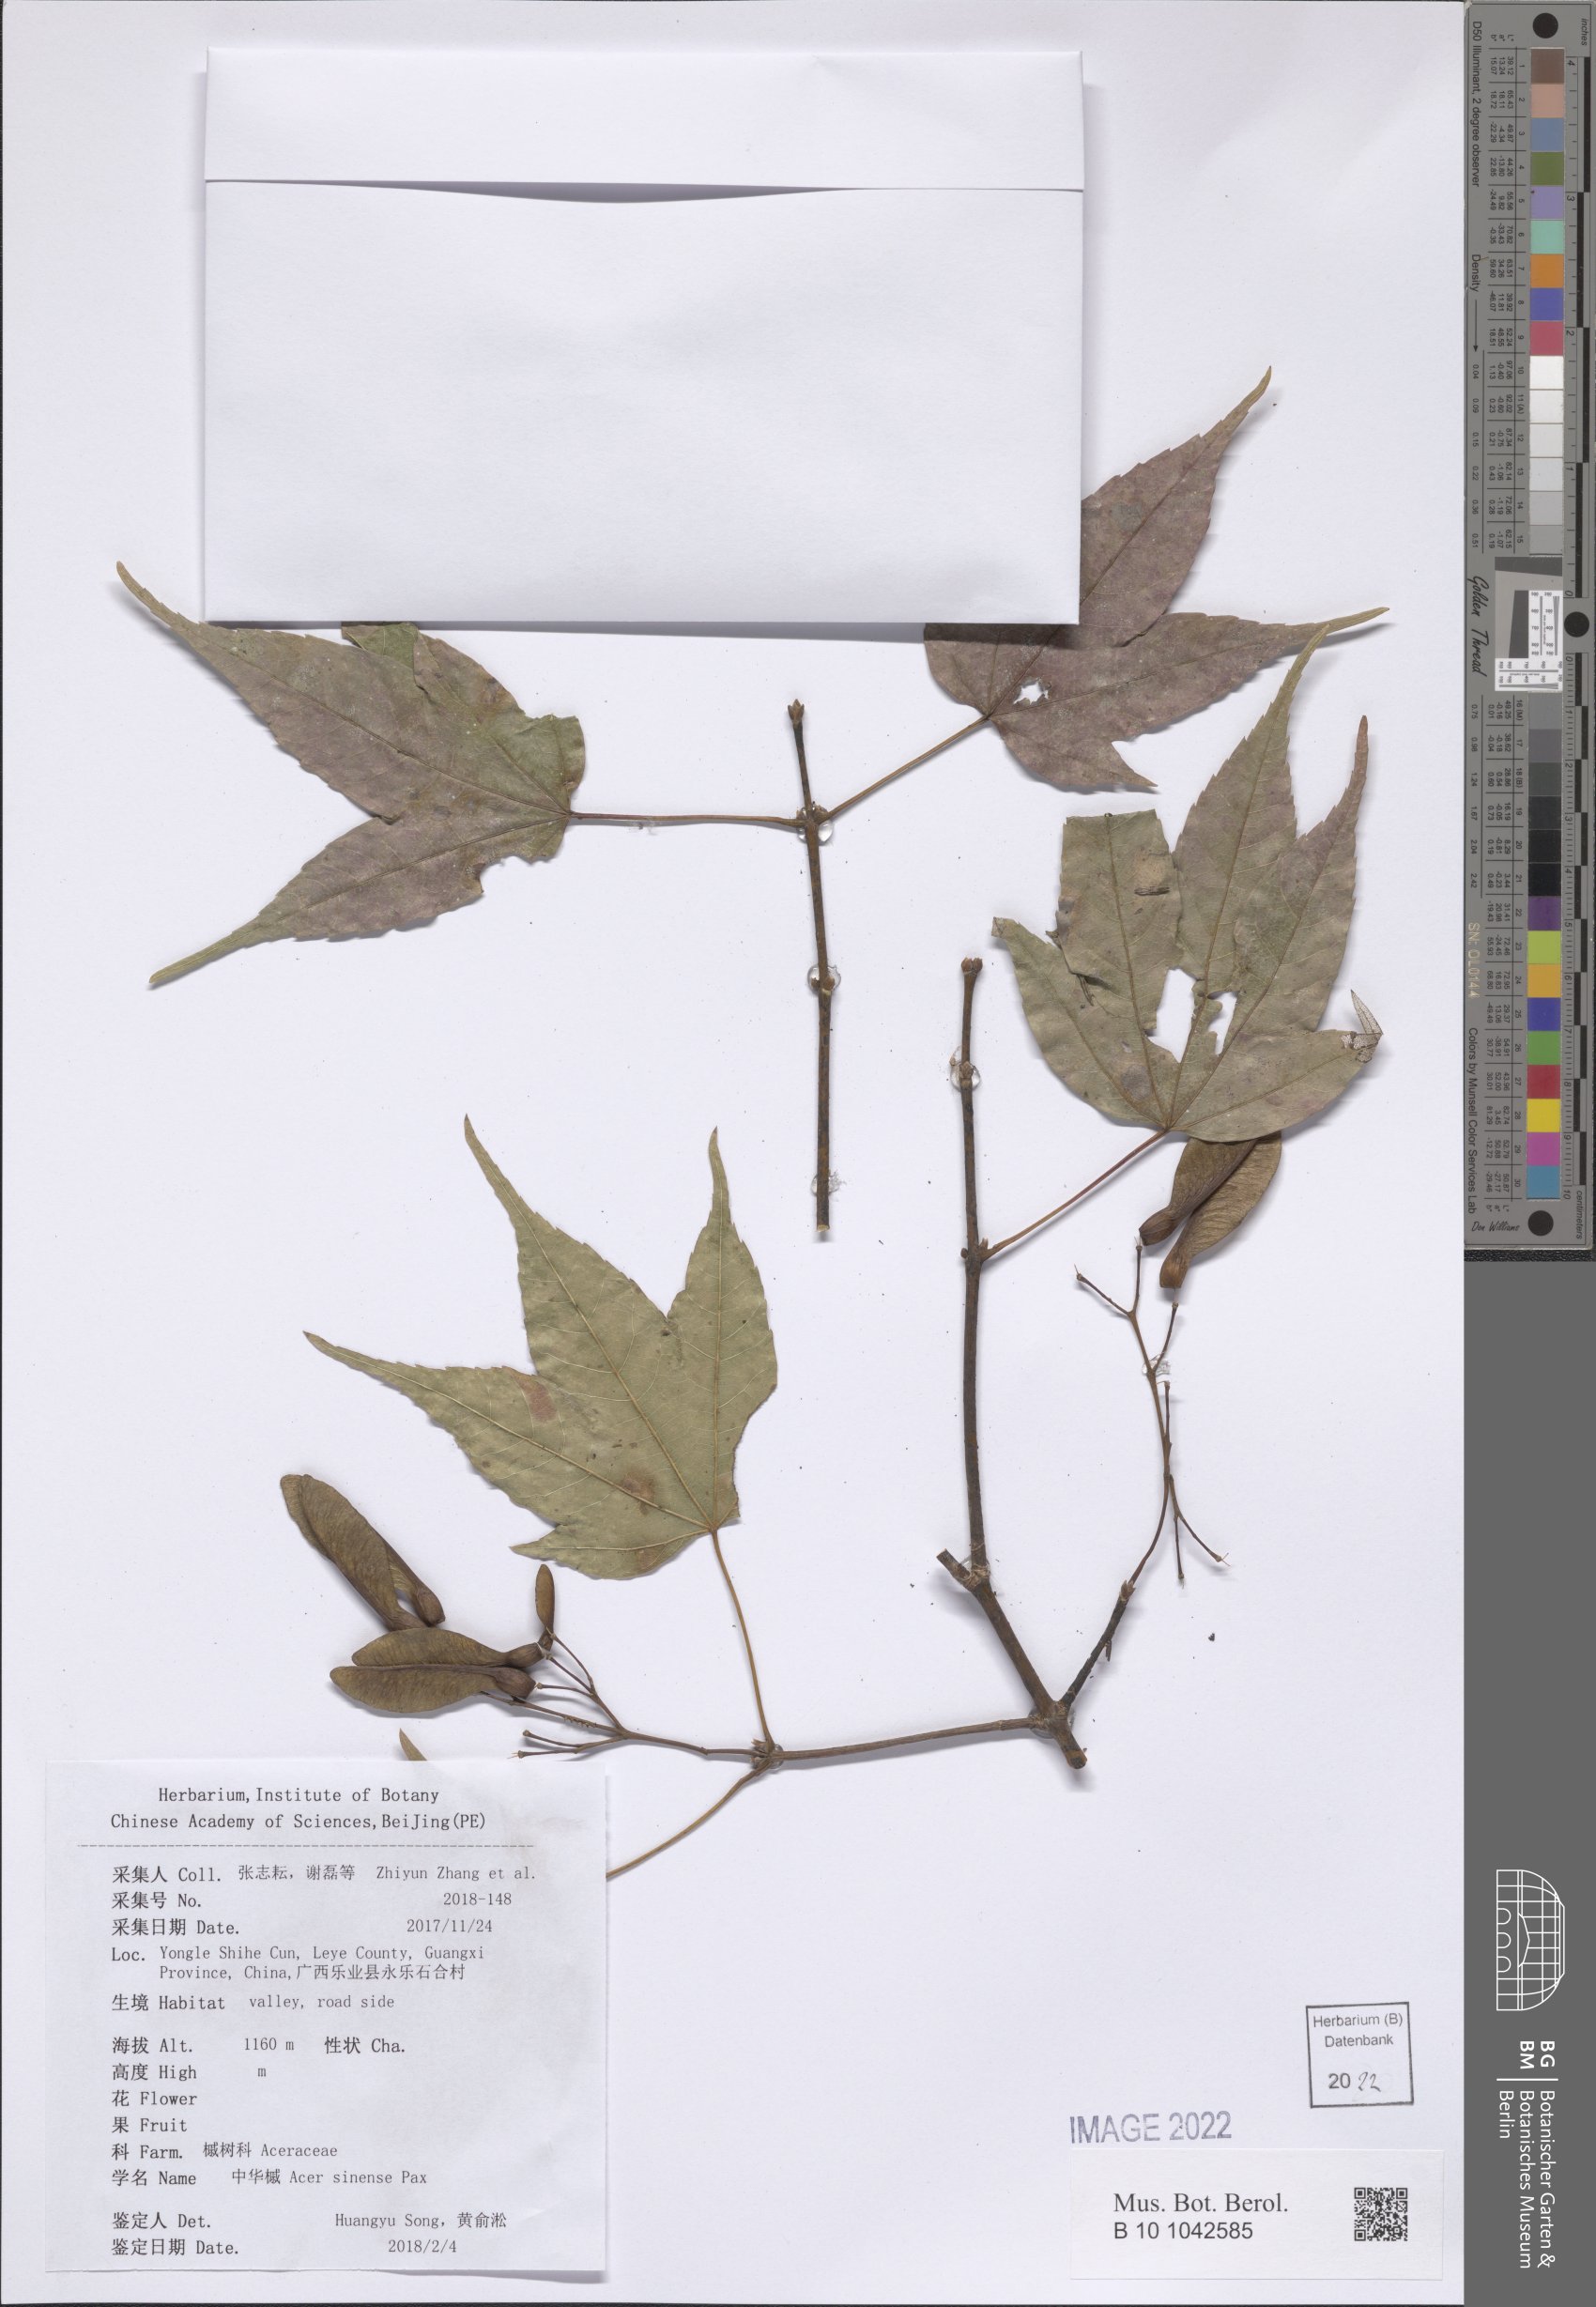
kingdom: Plantae
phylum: Tracheophyta
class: Magnoliopsida
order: Sapindales
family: Sapindaceae
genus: Acer
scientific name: Acer sinense
